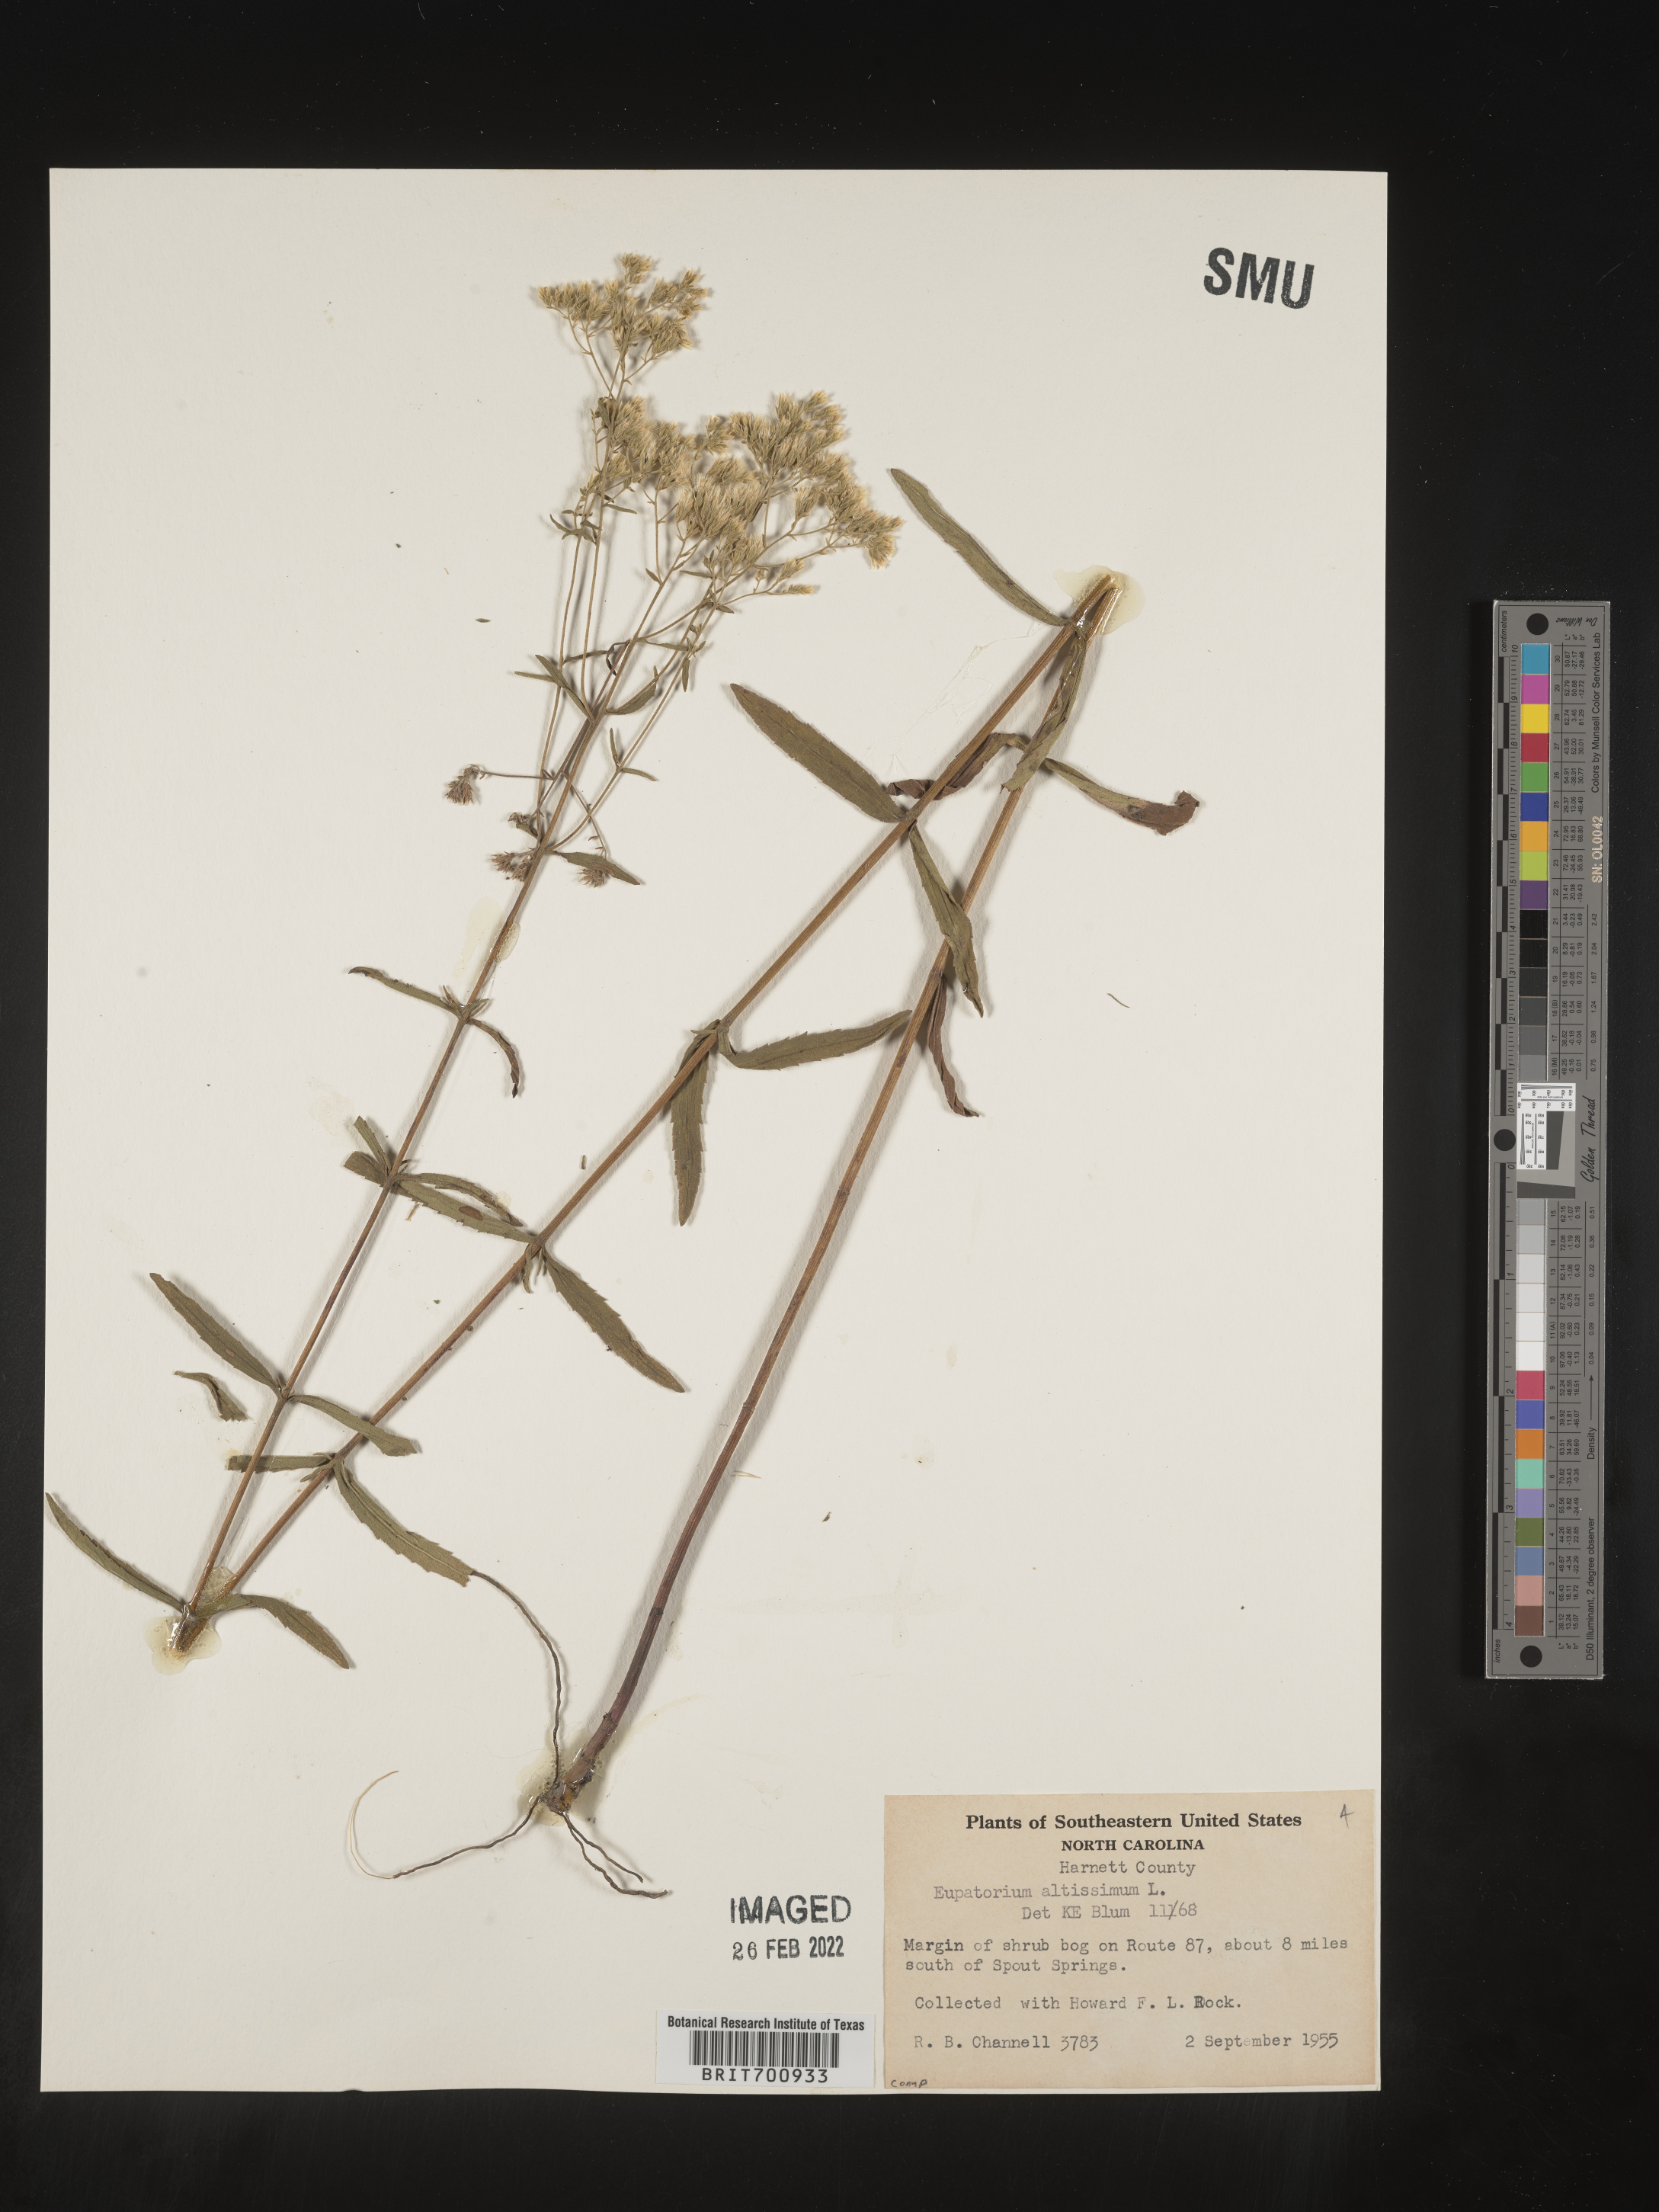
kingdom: Plantae
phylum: Tracheophyta
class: Magnoliopsida
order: Asterales
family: Asteraceae
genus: Eupatorium
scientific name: Eupatorium altissimum
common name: Tall thoroughwort
